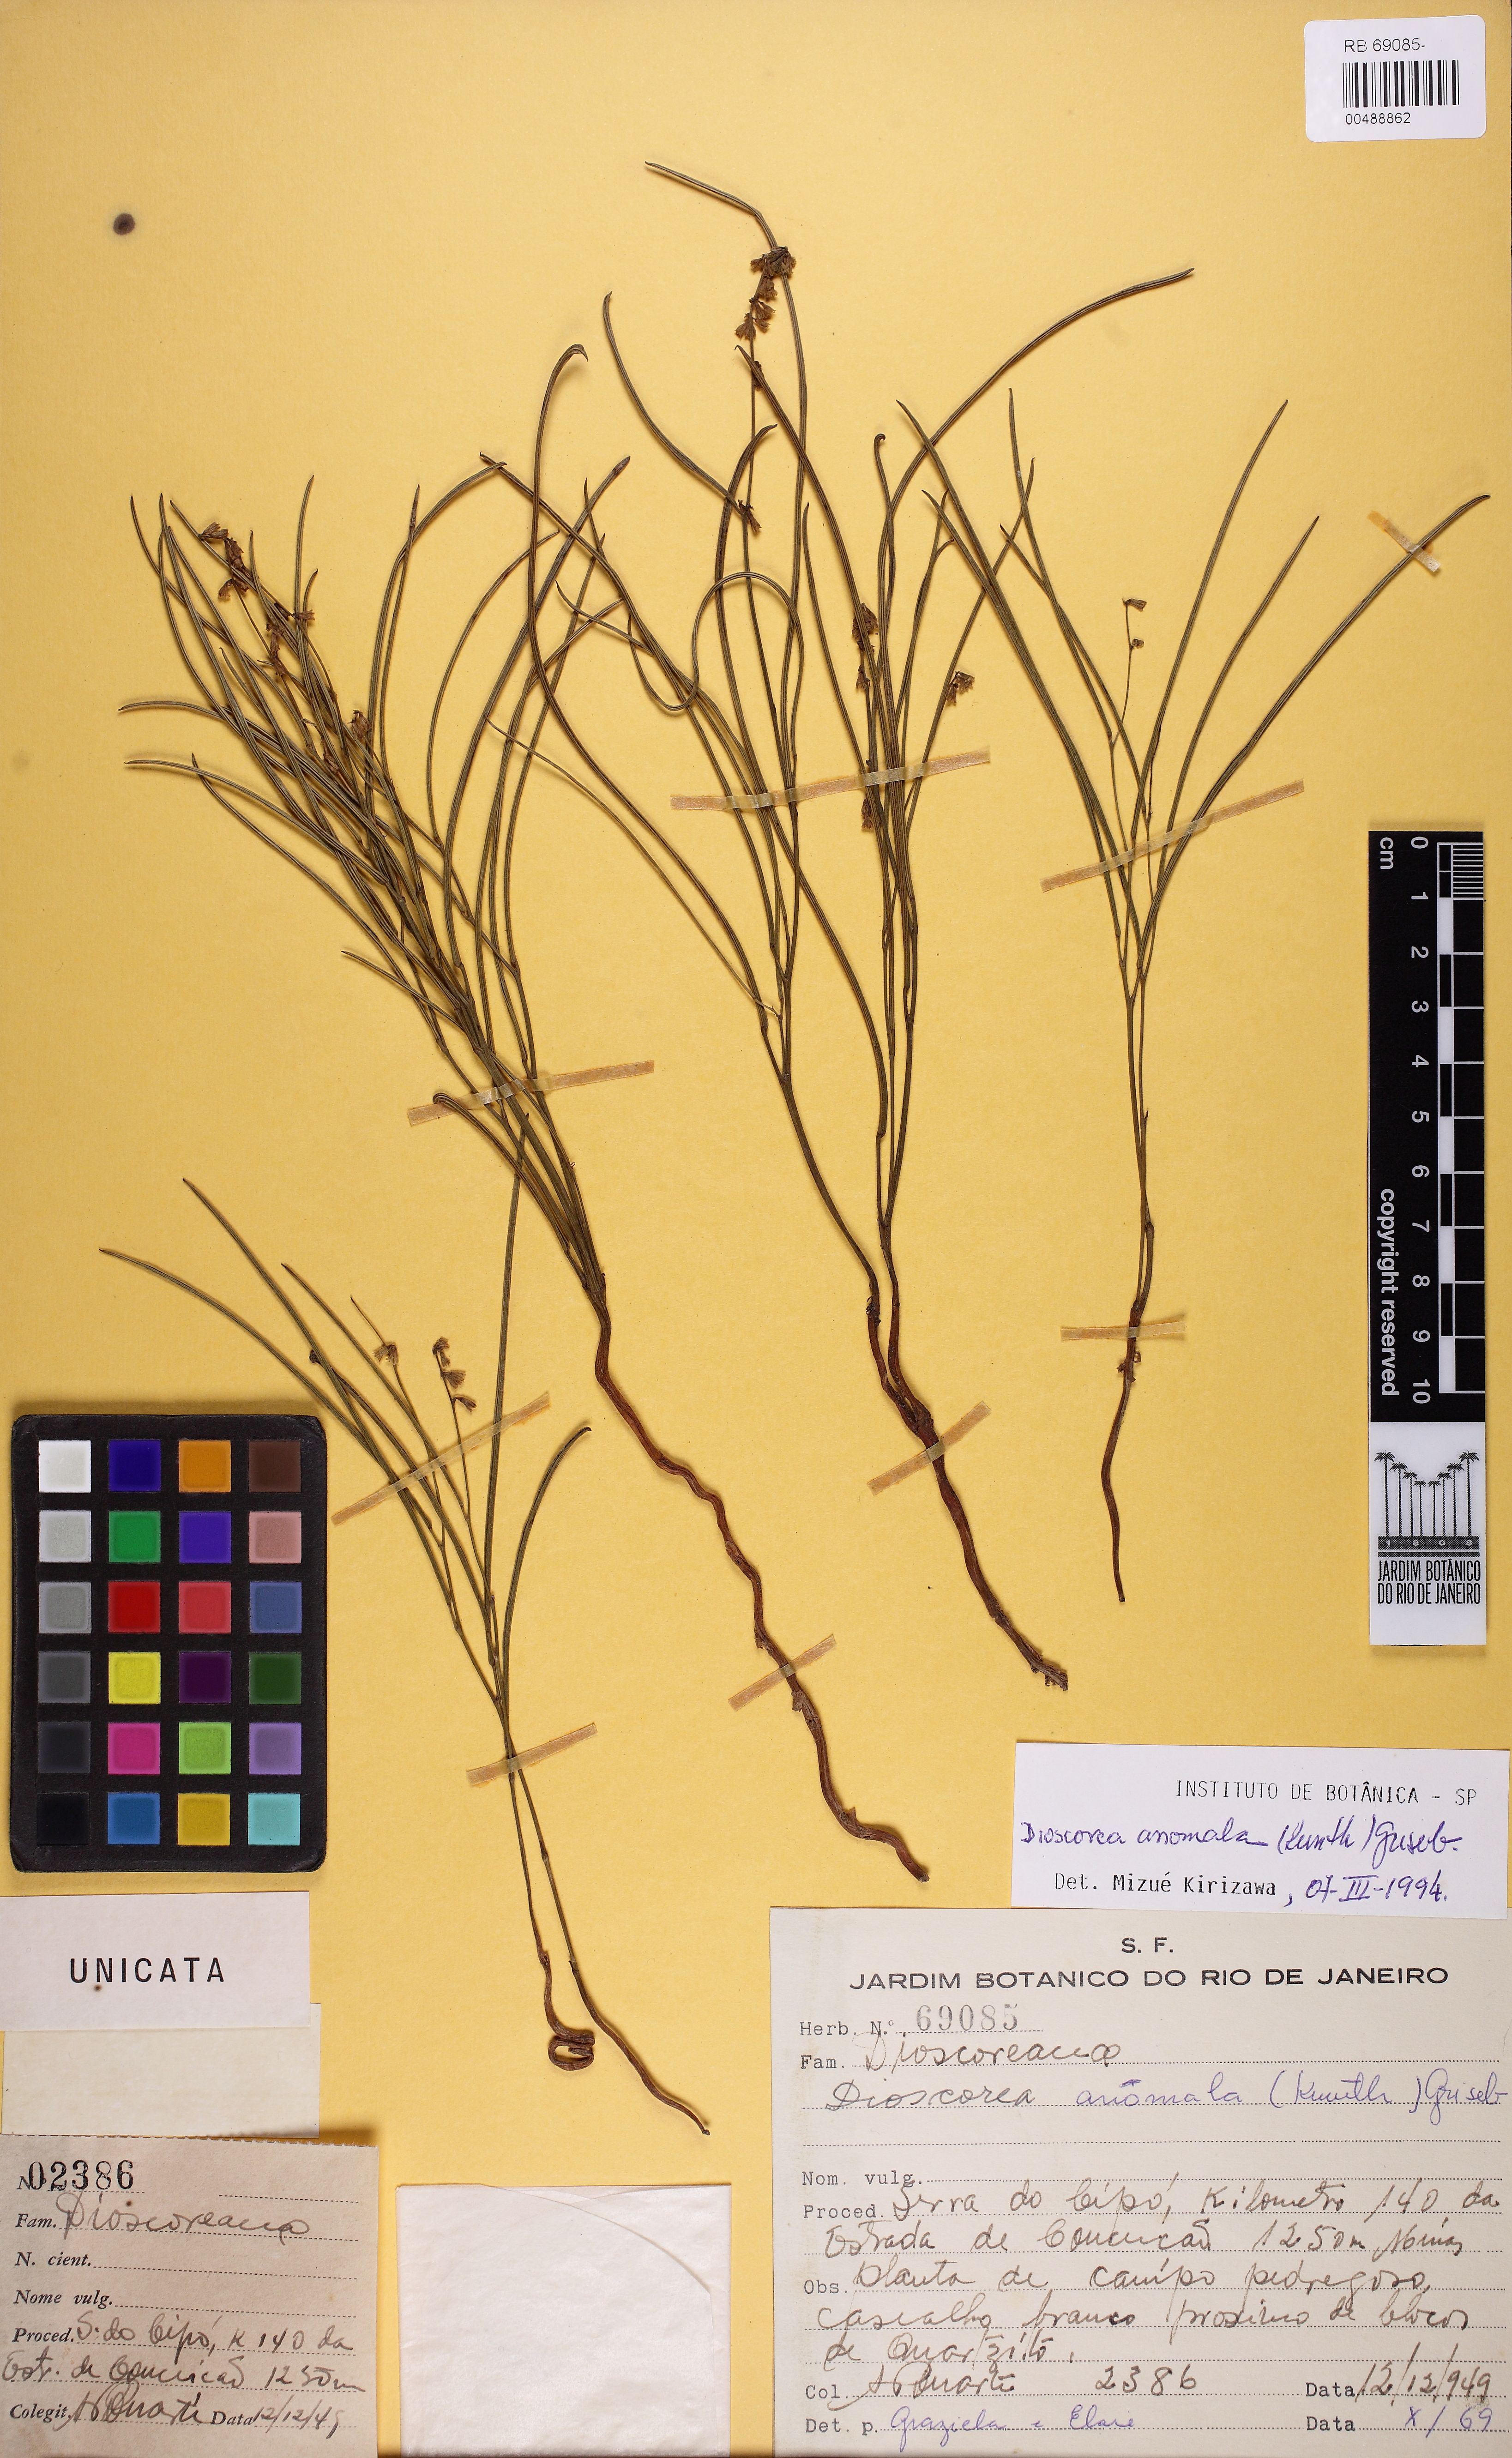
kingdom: Plantae
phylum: Tracheophyta
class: Liliopsida
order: Dioscoreales
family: Dioscoreaceae
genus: Dioscorea
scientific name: Dioscorea anomala
